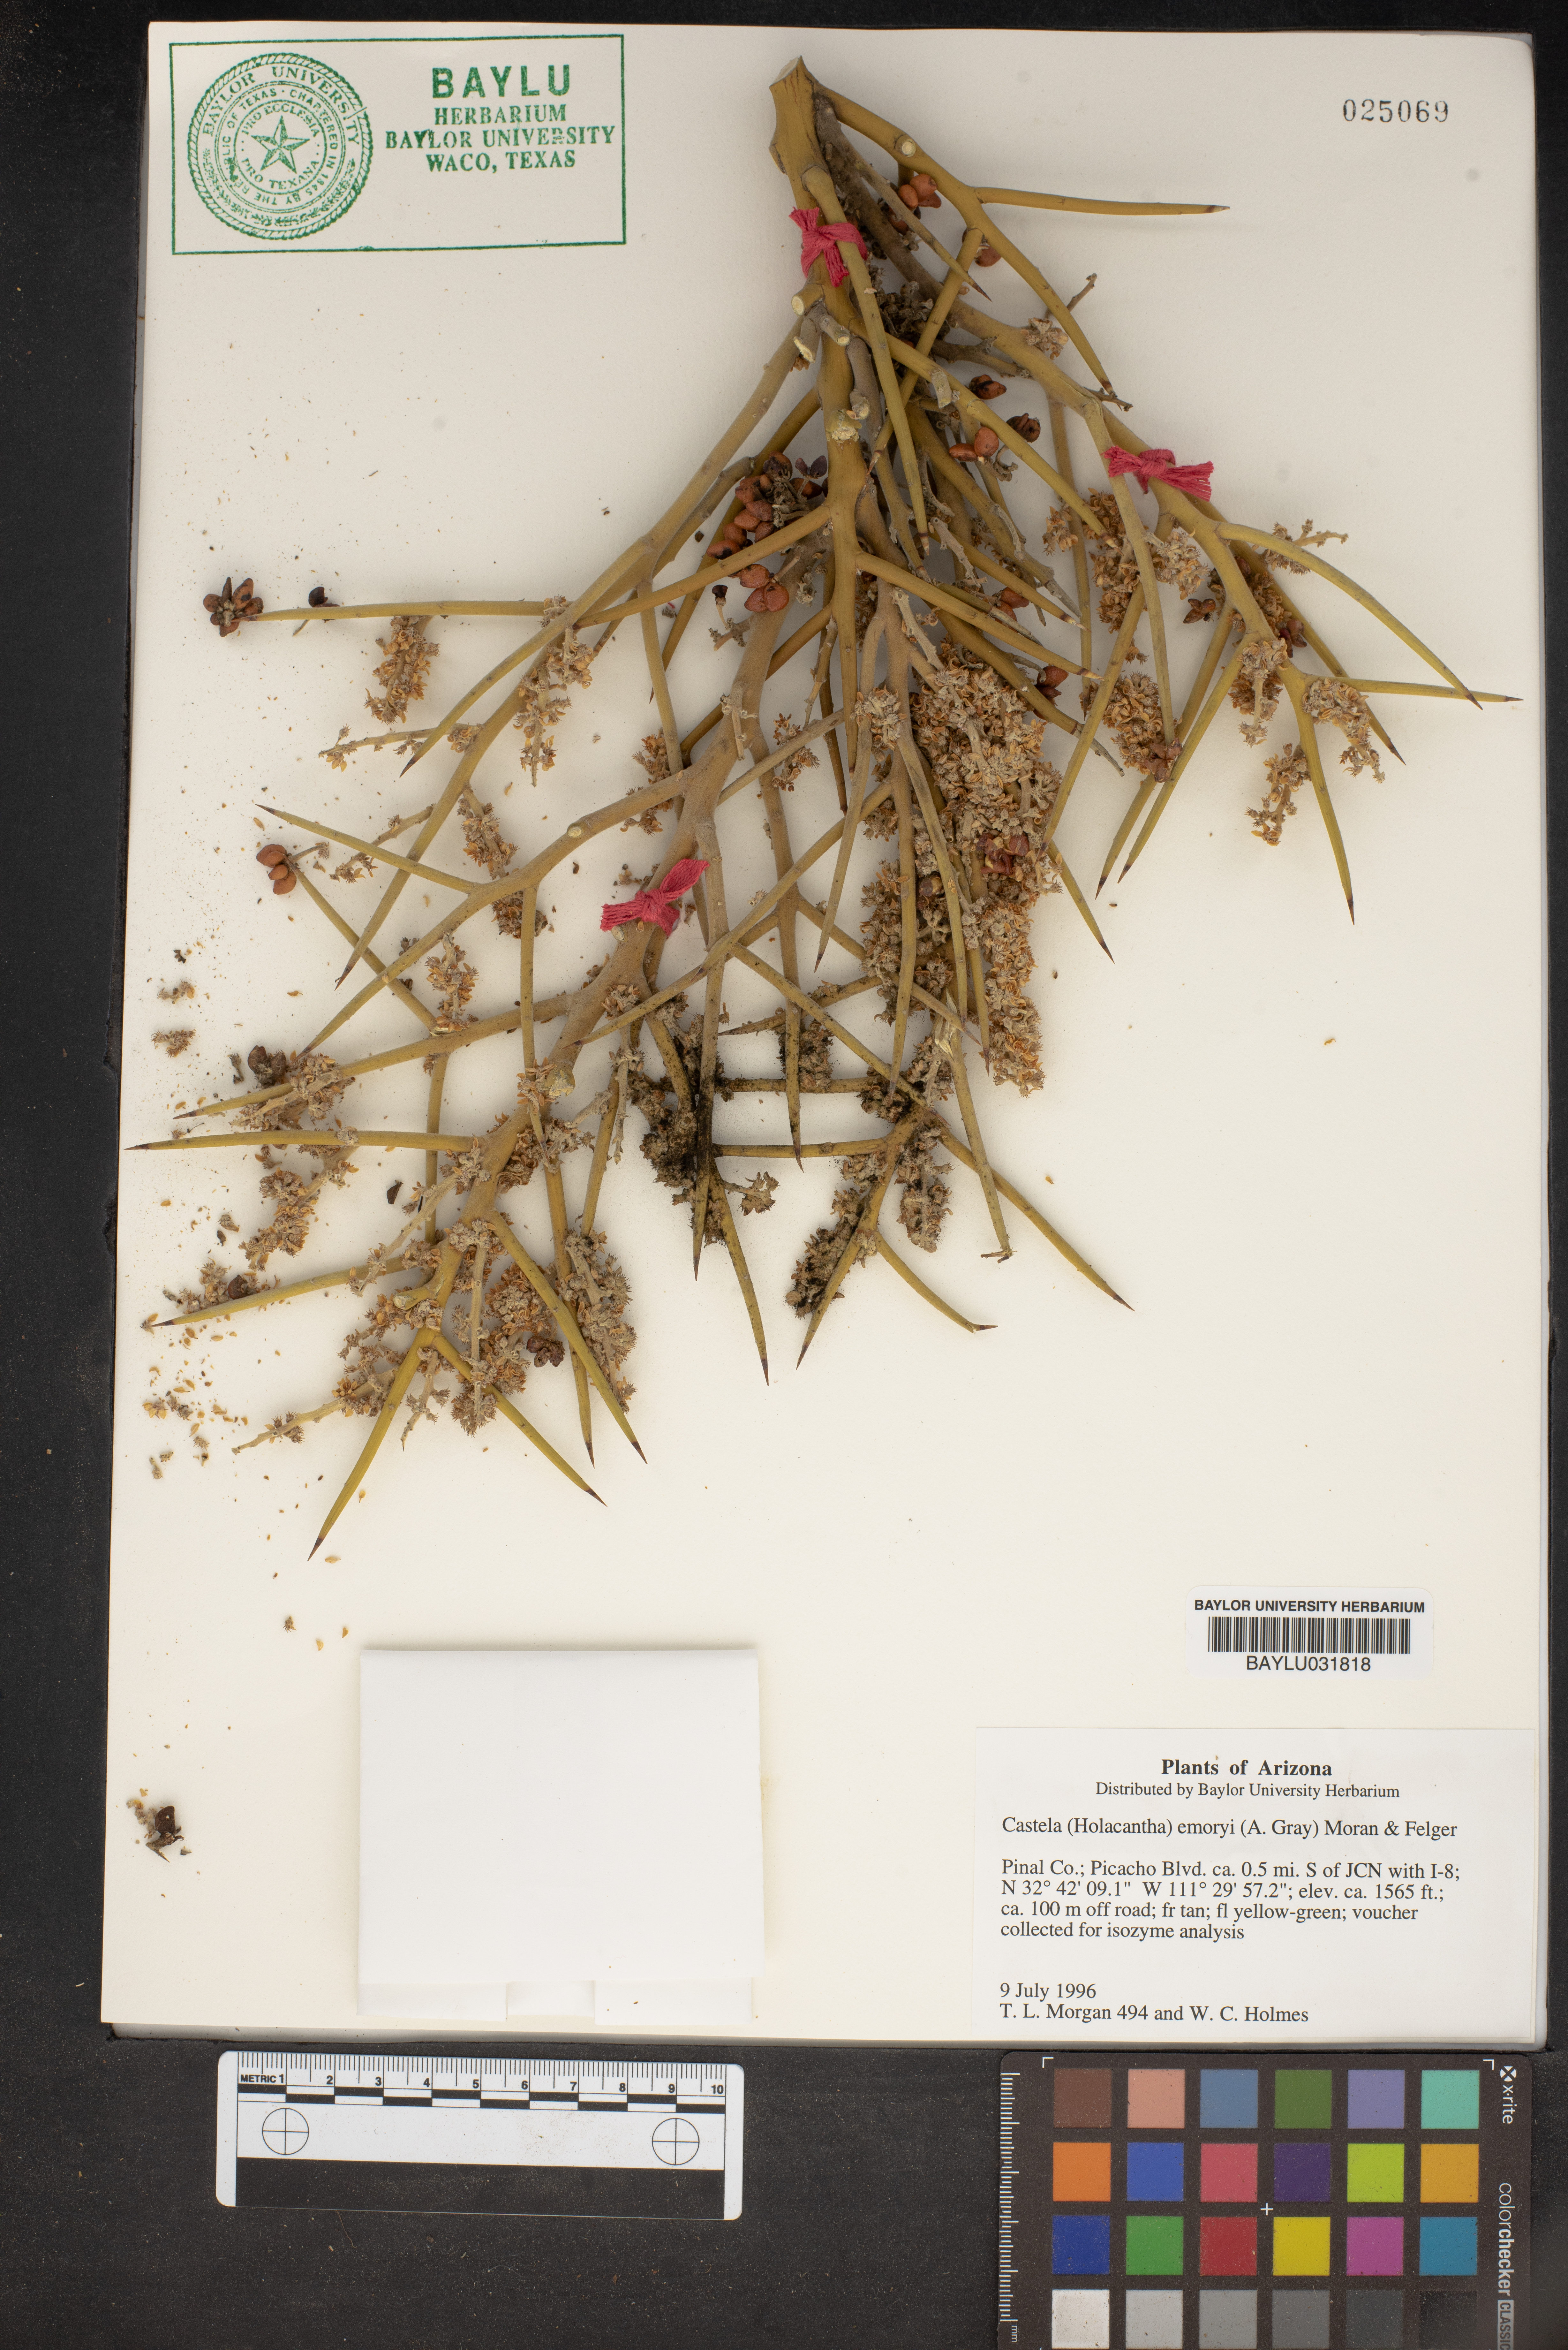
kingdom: Plantae
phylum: Tracheophyta
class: Magnoliopsida
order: Sapindales
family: Simaroubaceae
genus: Holacantha
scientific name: Holacantha emoryi
